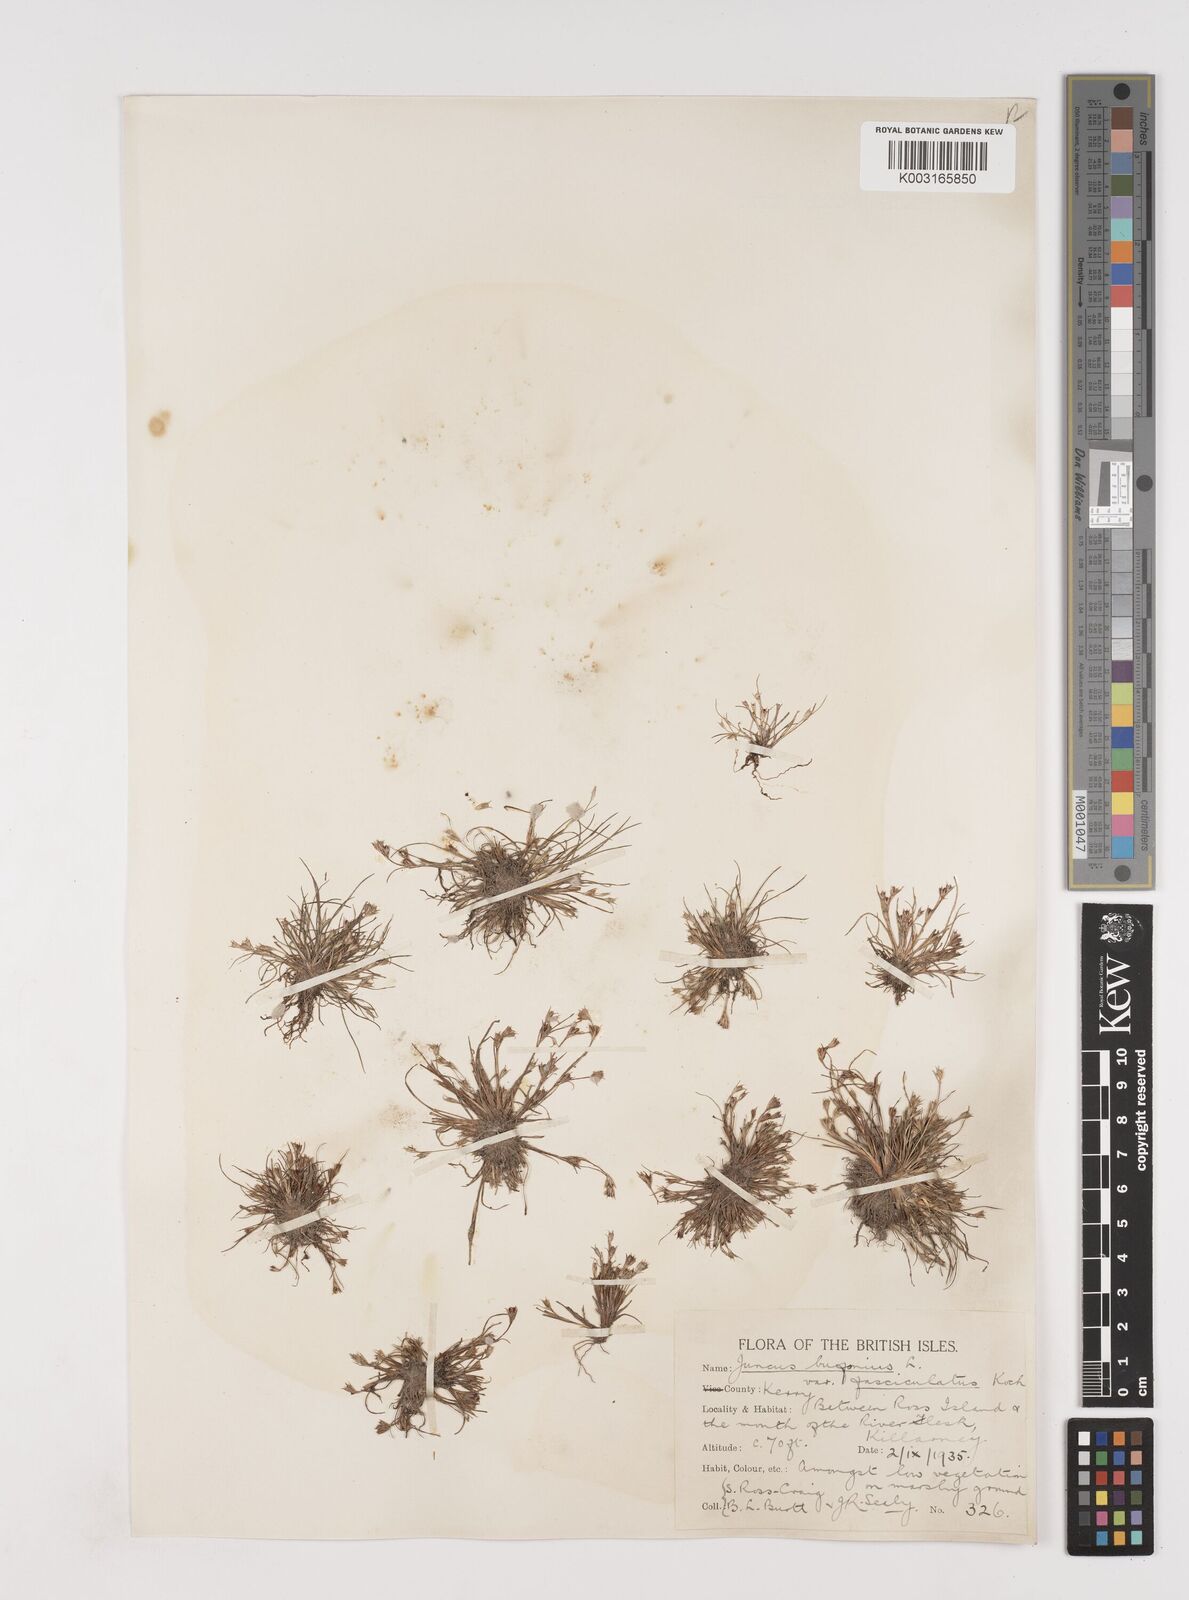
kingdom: Plantae
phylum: Tracheophyta
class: Liliopsida
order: Poales
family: Juncaceae
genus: Juncus
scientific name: Juncus bufonius
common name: Toad rush
